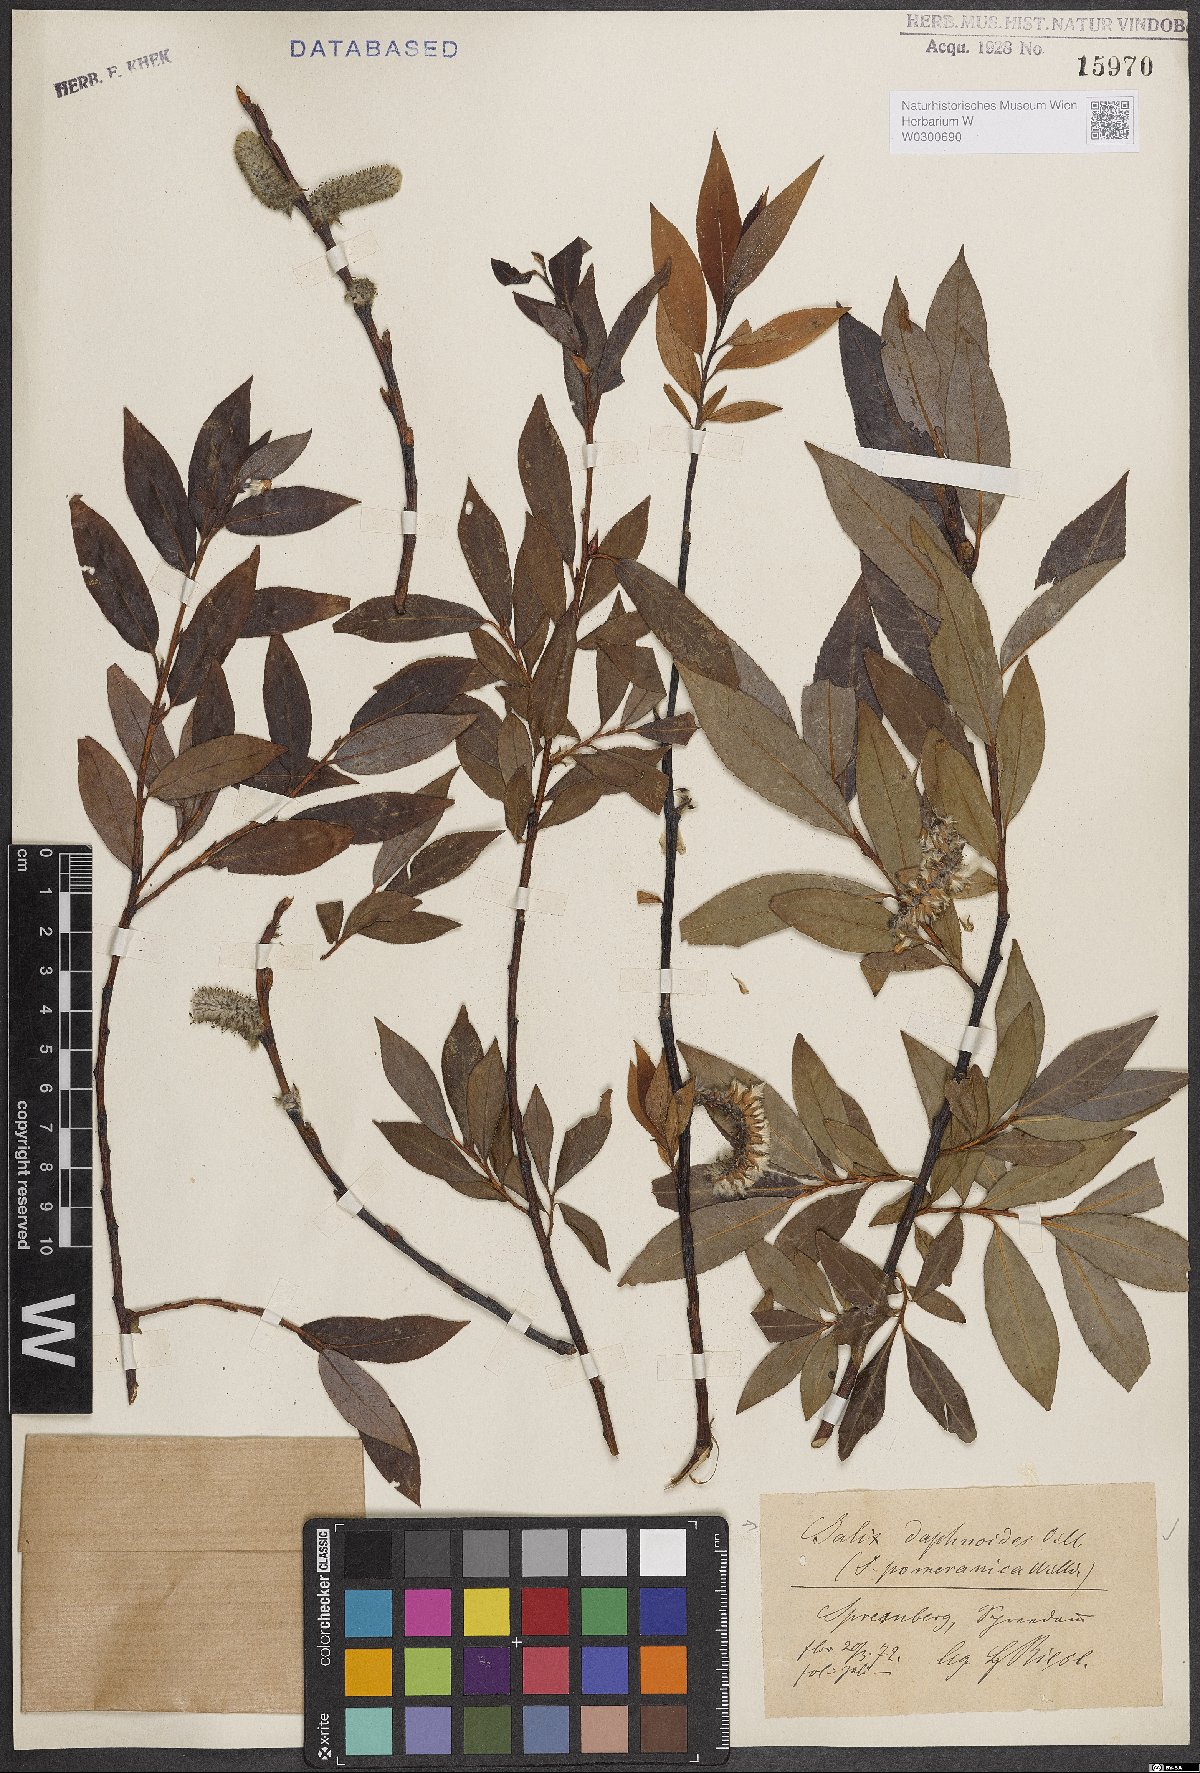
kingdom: Plantae
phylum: Tracheophyta
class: Magnoliopsida
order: Malpighiales
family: Salicaceae
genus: Salix
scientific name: Salix daphnoides
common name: European violet-willow
